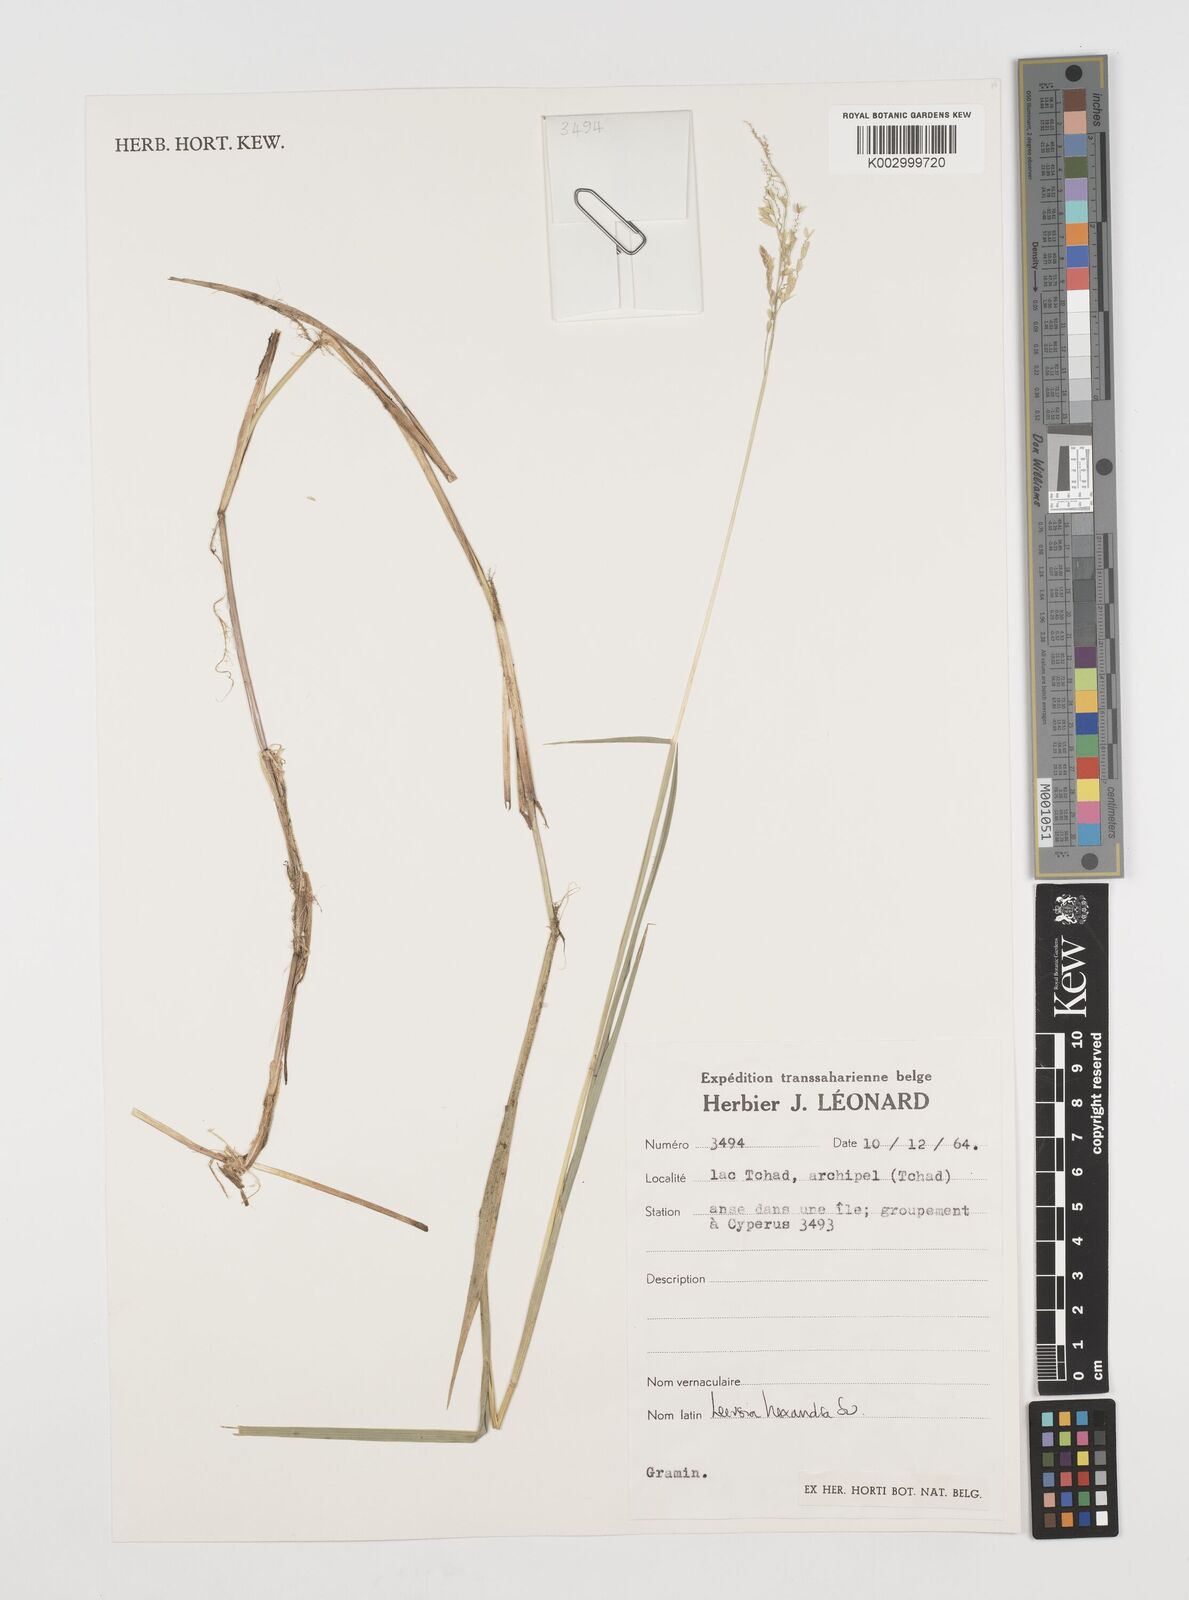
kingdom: Plantae
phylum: Tracheophyta
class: Liliopsida
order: Poales
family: Poaceae
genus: Leersia
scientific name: Leersia hexandra
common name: Southern cut grass
